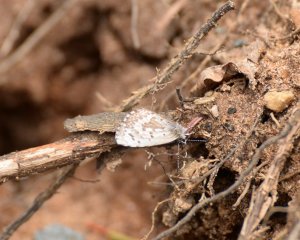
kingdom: Animalia
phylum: Arthropoda
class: Insecta
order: Lepidoptera
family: Lycaenidae
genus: Celastrina
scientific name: Celastrina lucia
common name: Northern Spring Azure
